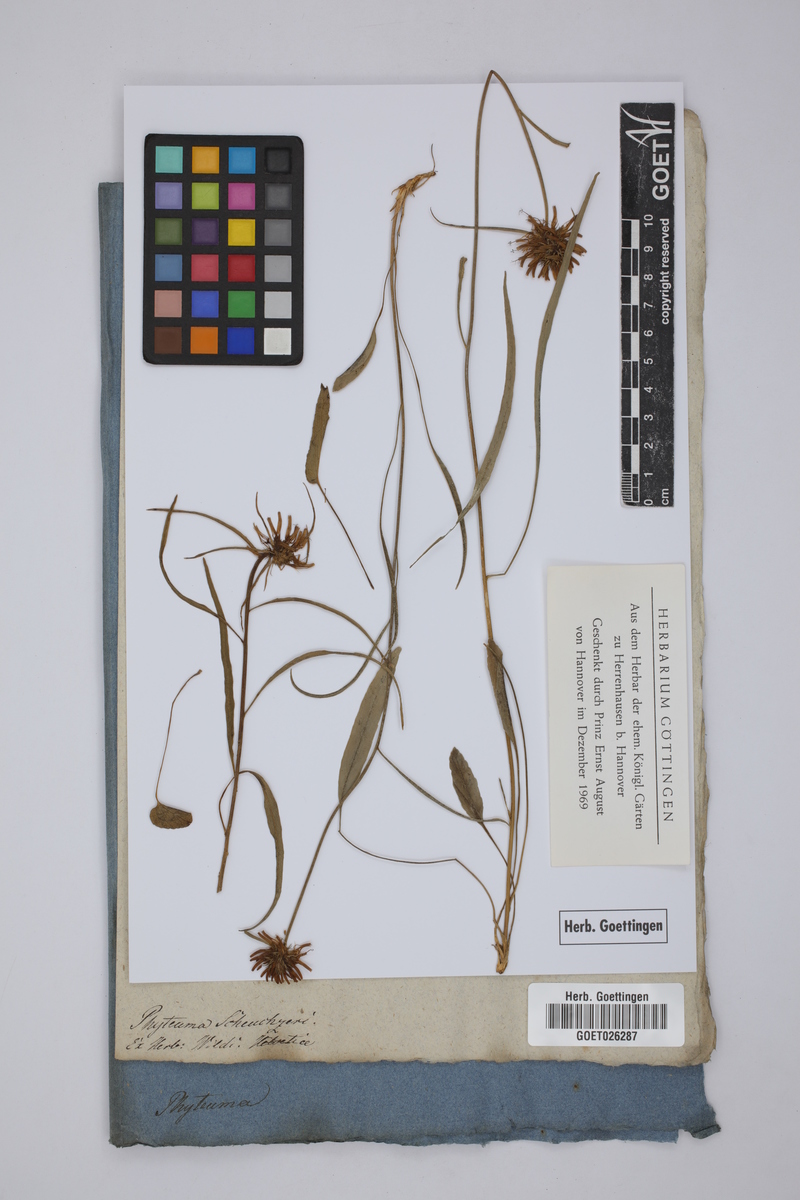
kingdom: Plantae
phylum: Tracheophyta
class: Magnoliopsida
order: Asterales
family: Campanulaceae
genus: Phyteuma
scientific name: Phyteuma scheuchzeri
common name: Oxford rampion
